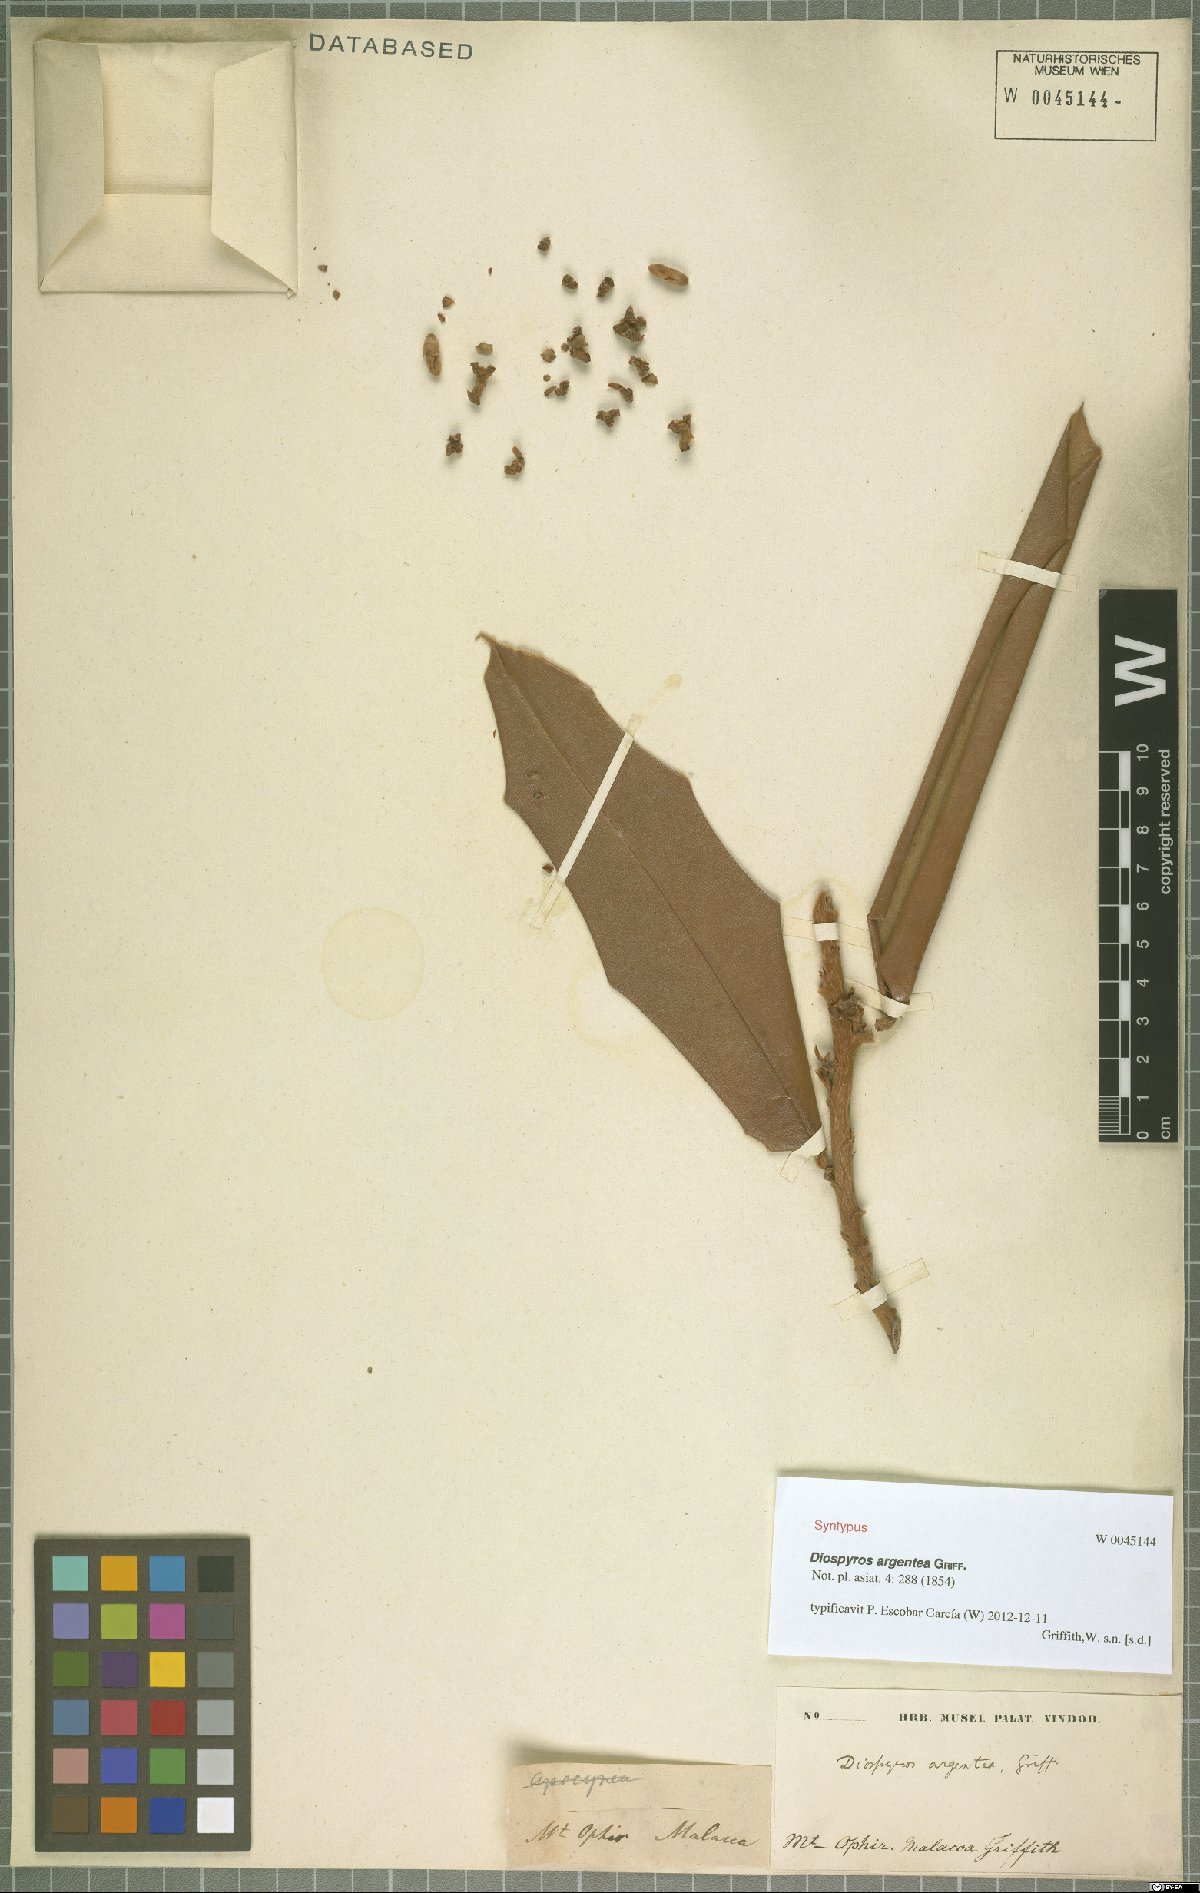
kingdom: Plantae
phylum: Tracheophyta
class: Magnoliopsida
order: Ericales
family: Ebenaceae
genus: Diospyros
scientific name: Diospyros argentea
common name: Silver-leaved ebony
